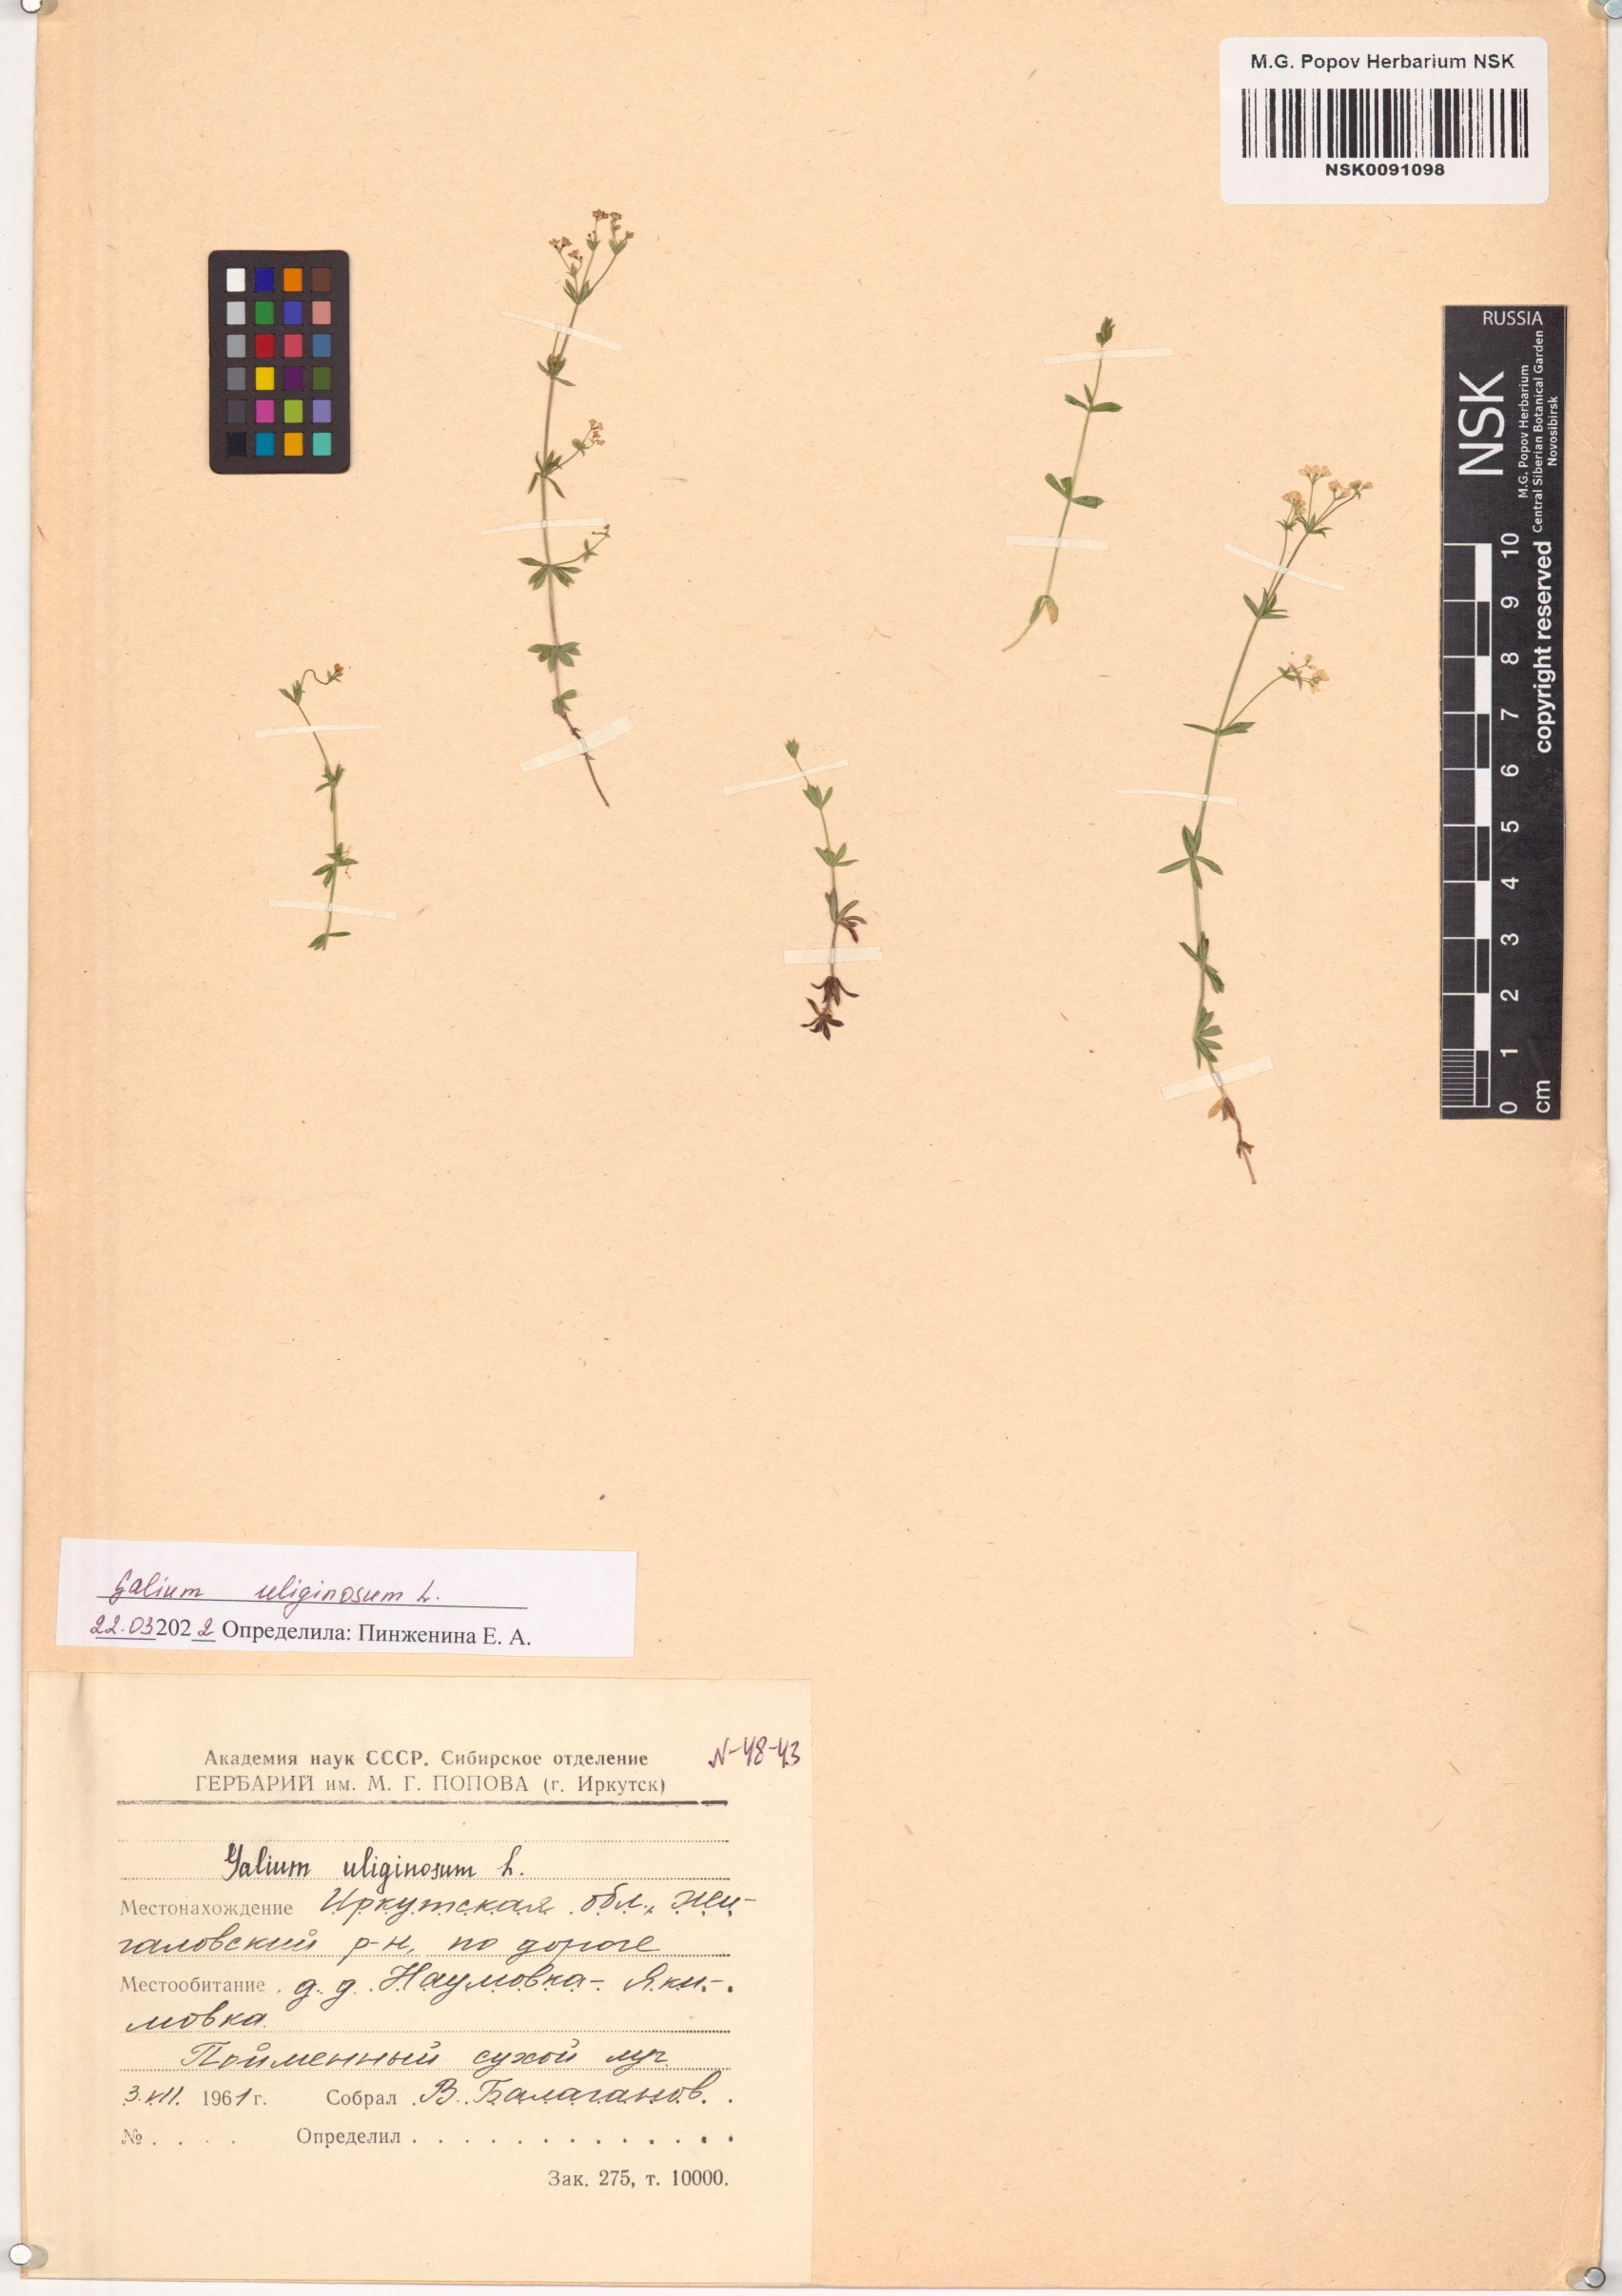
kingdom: Plantae
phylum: Tracheophyta
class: Magnoliopsida
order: Gentianales
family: Rubiaceae
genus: Galium
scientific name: Galium uliginosum
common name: Fen bedstraw
